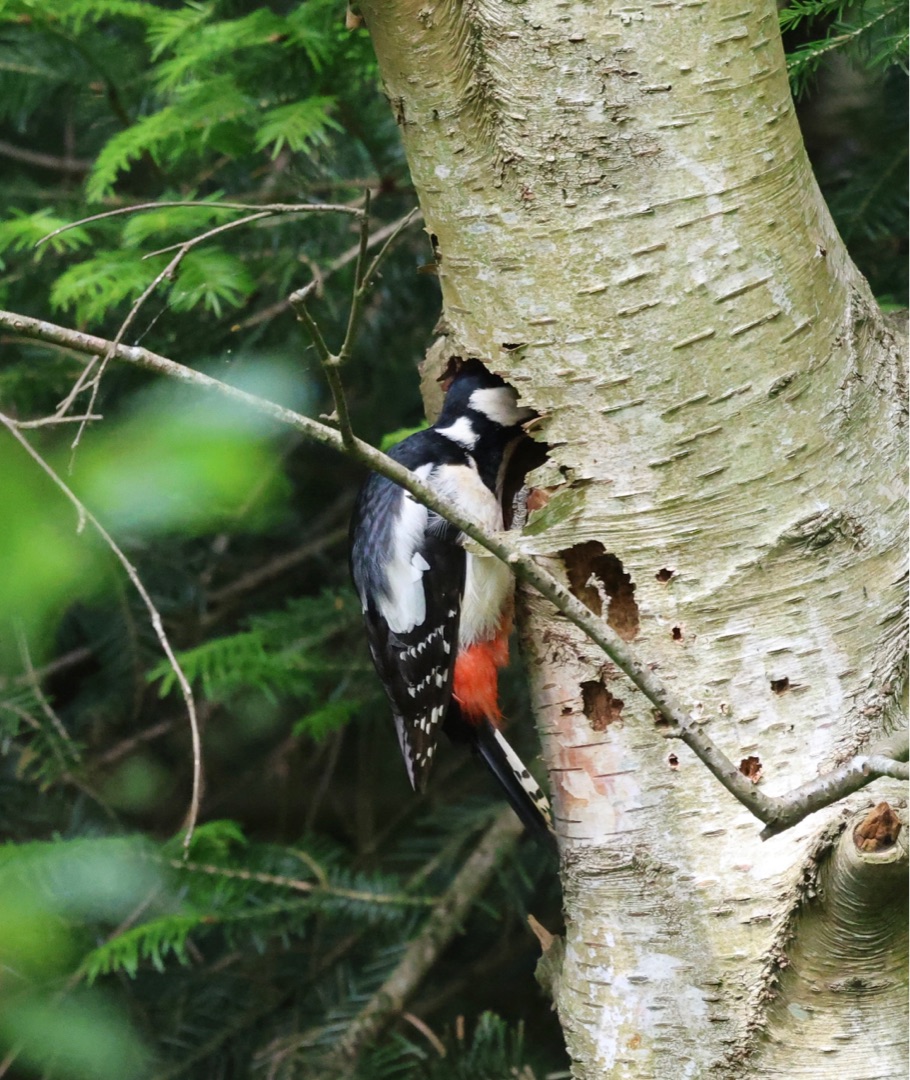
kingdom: Animalia
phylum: Chordata
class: Aves
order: Piciformes
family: Picidae
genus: Dendrocopos
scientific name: Dendrocopos major
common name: Stor flagspætte
